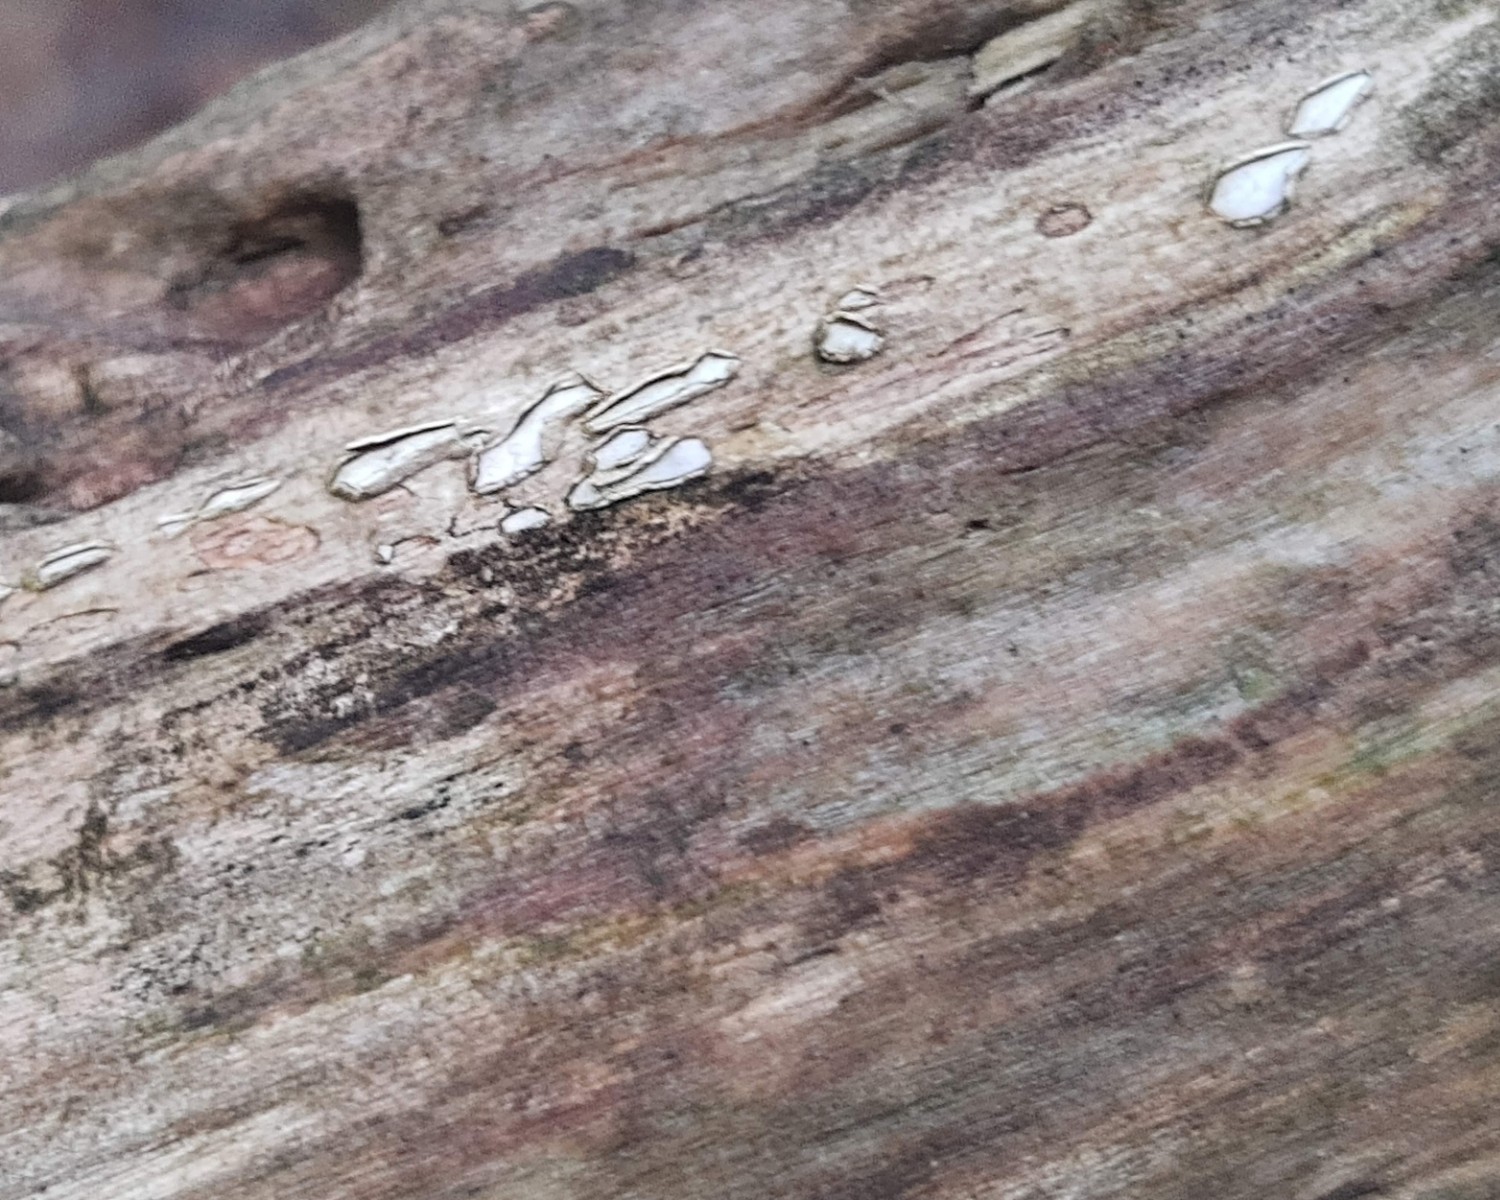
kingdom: Fungi
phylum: Ascomycota
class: Leotiomycetes
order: Chaetomellales
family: Marthamycetaceae
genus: Propolis
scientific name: Propolis farinosa
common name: almindelig vedsprængerskive
